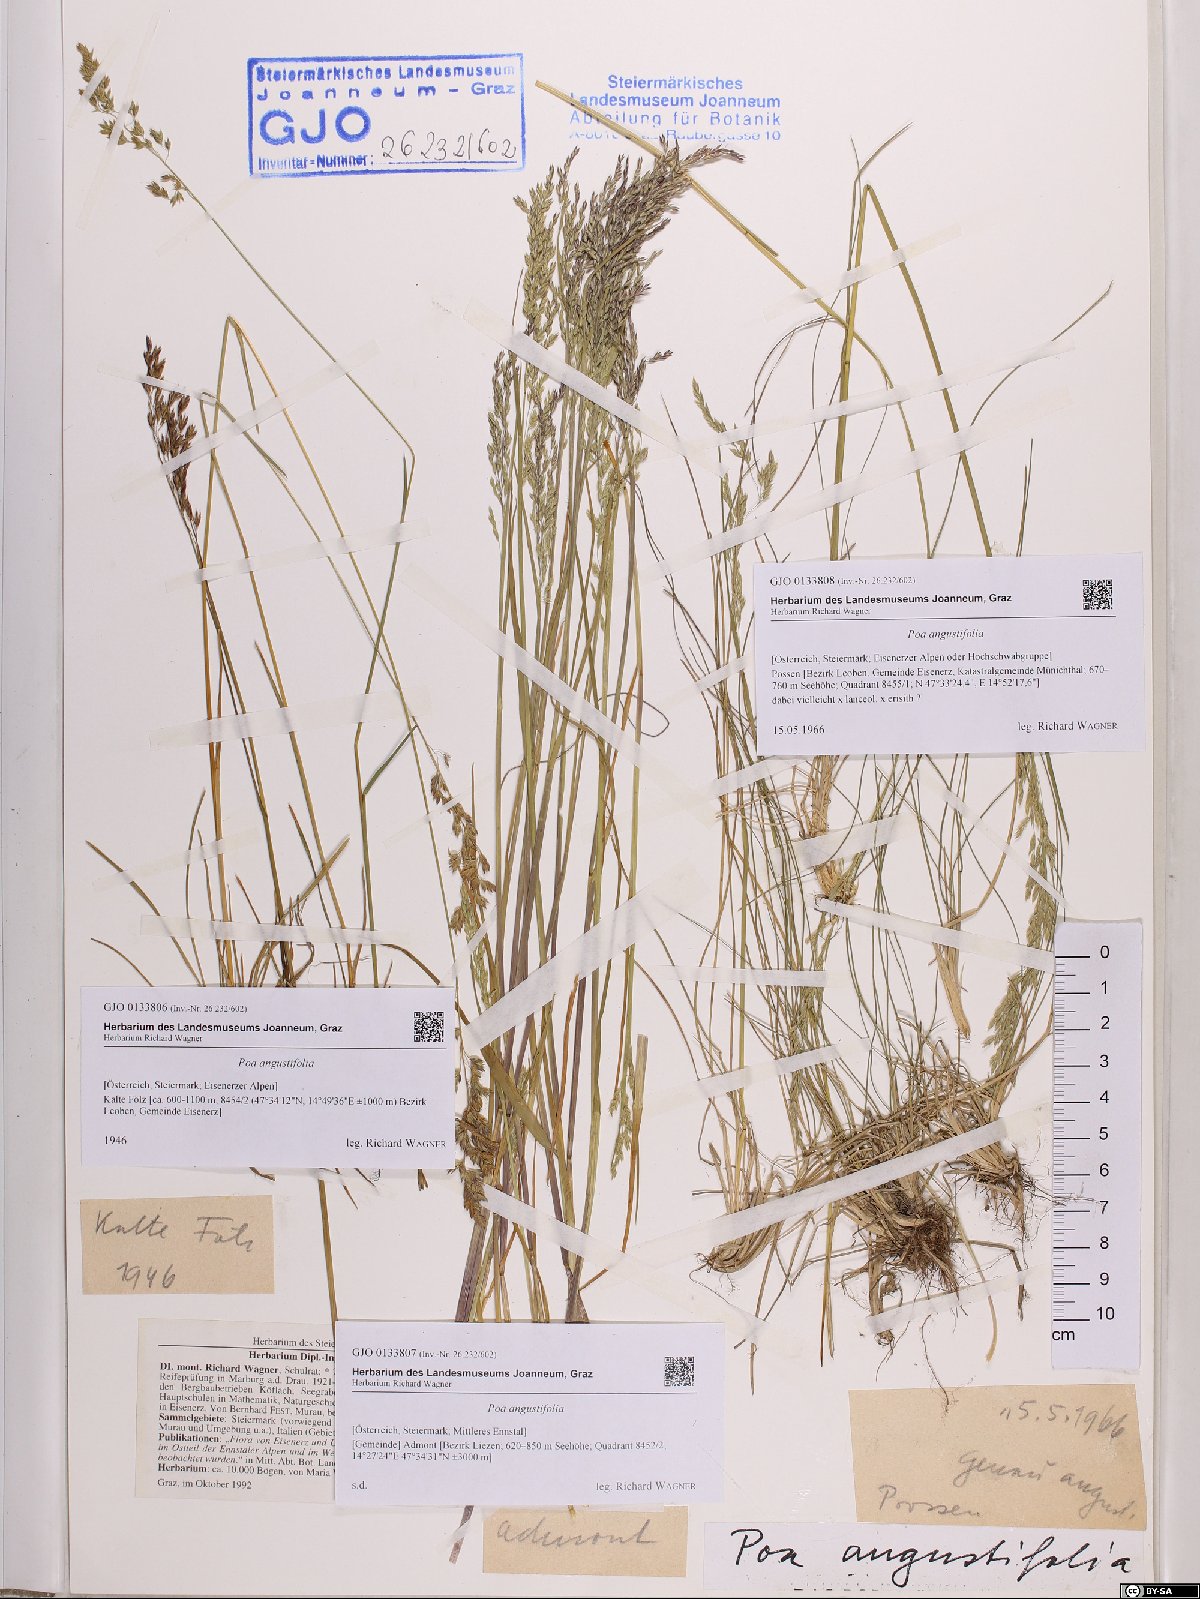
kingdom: Plantae
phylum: Tracheophyta
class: Liliopsida
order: Poales
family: Poaceae
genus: Poa
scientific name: Poa angustifolia
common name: Narrow-leaved meadow-grass
